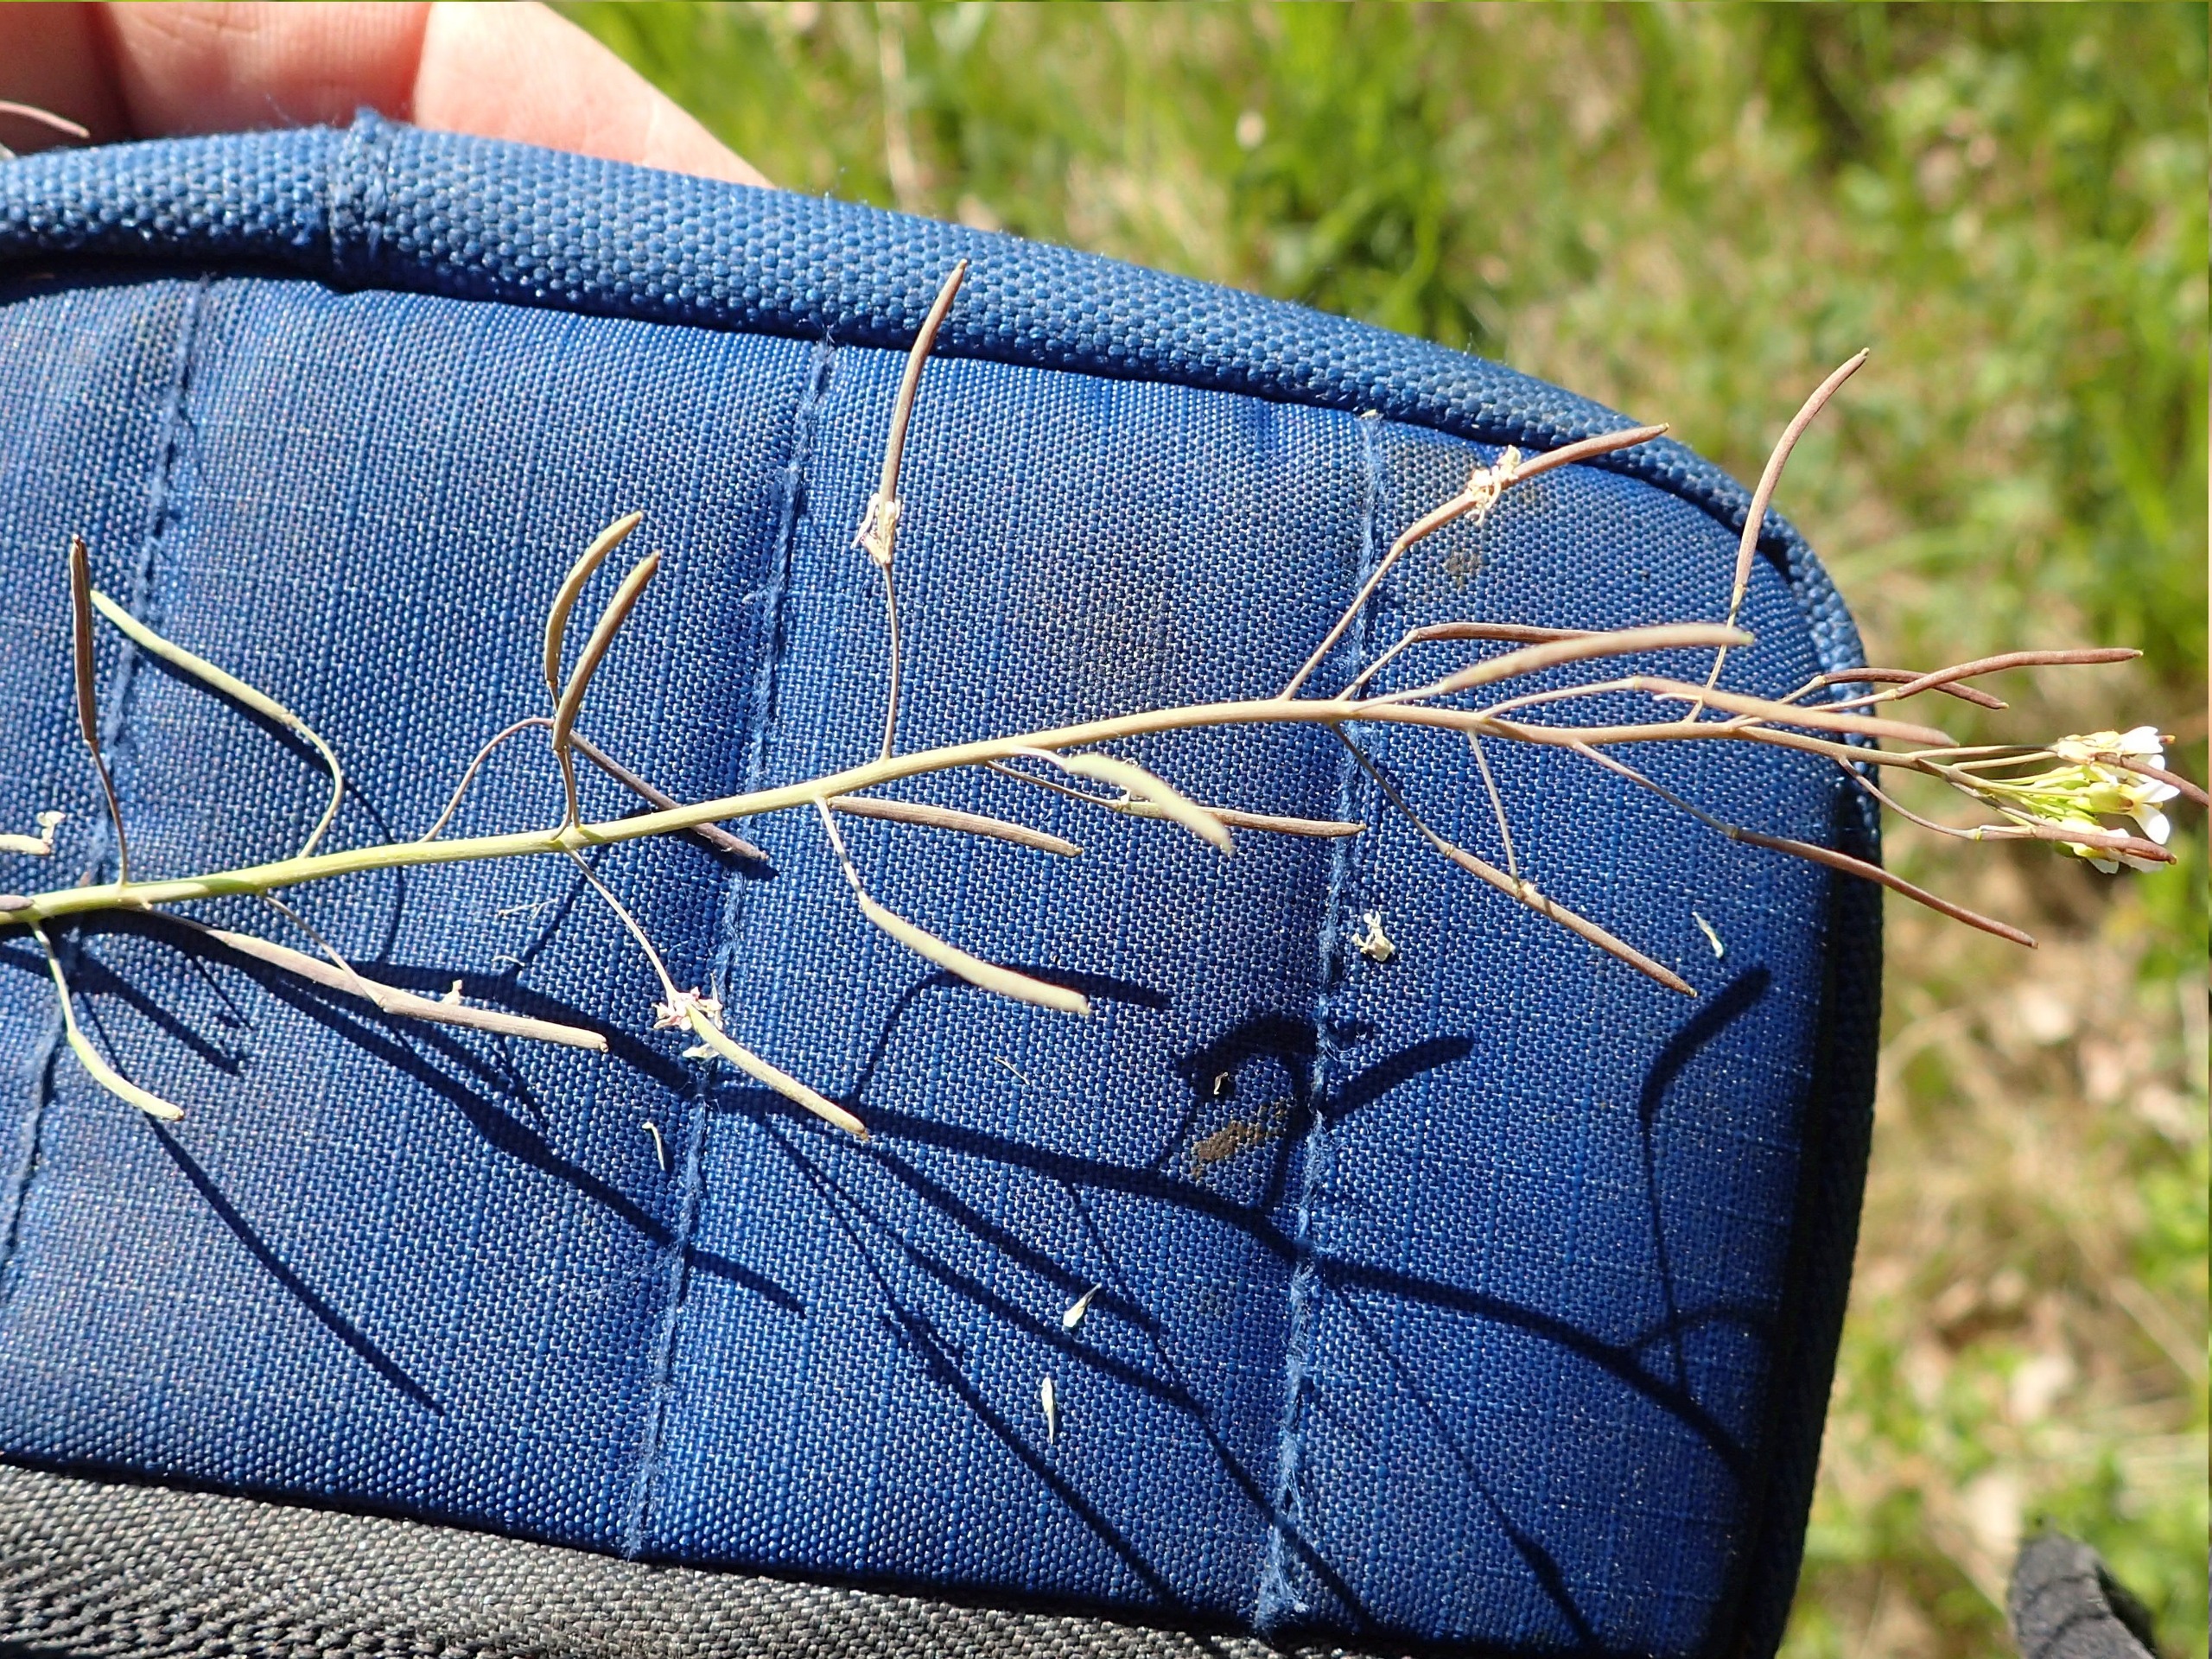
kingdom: Plantae
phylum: Tracheophyta
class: Magnoliopsida
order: Brassicales
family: Brassicaceae
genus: Arabidopsis
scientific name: Arabidopsis thaliana
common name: Almindelig gåsemad
